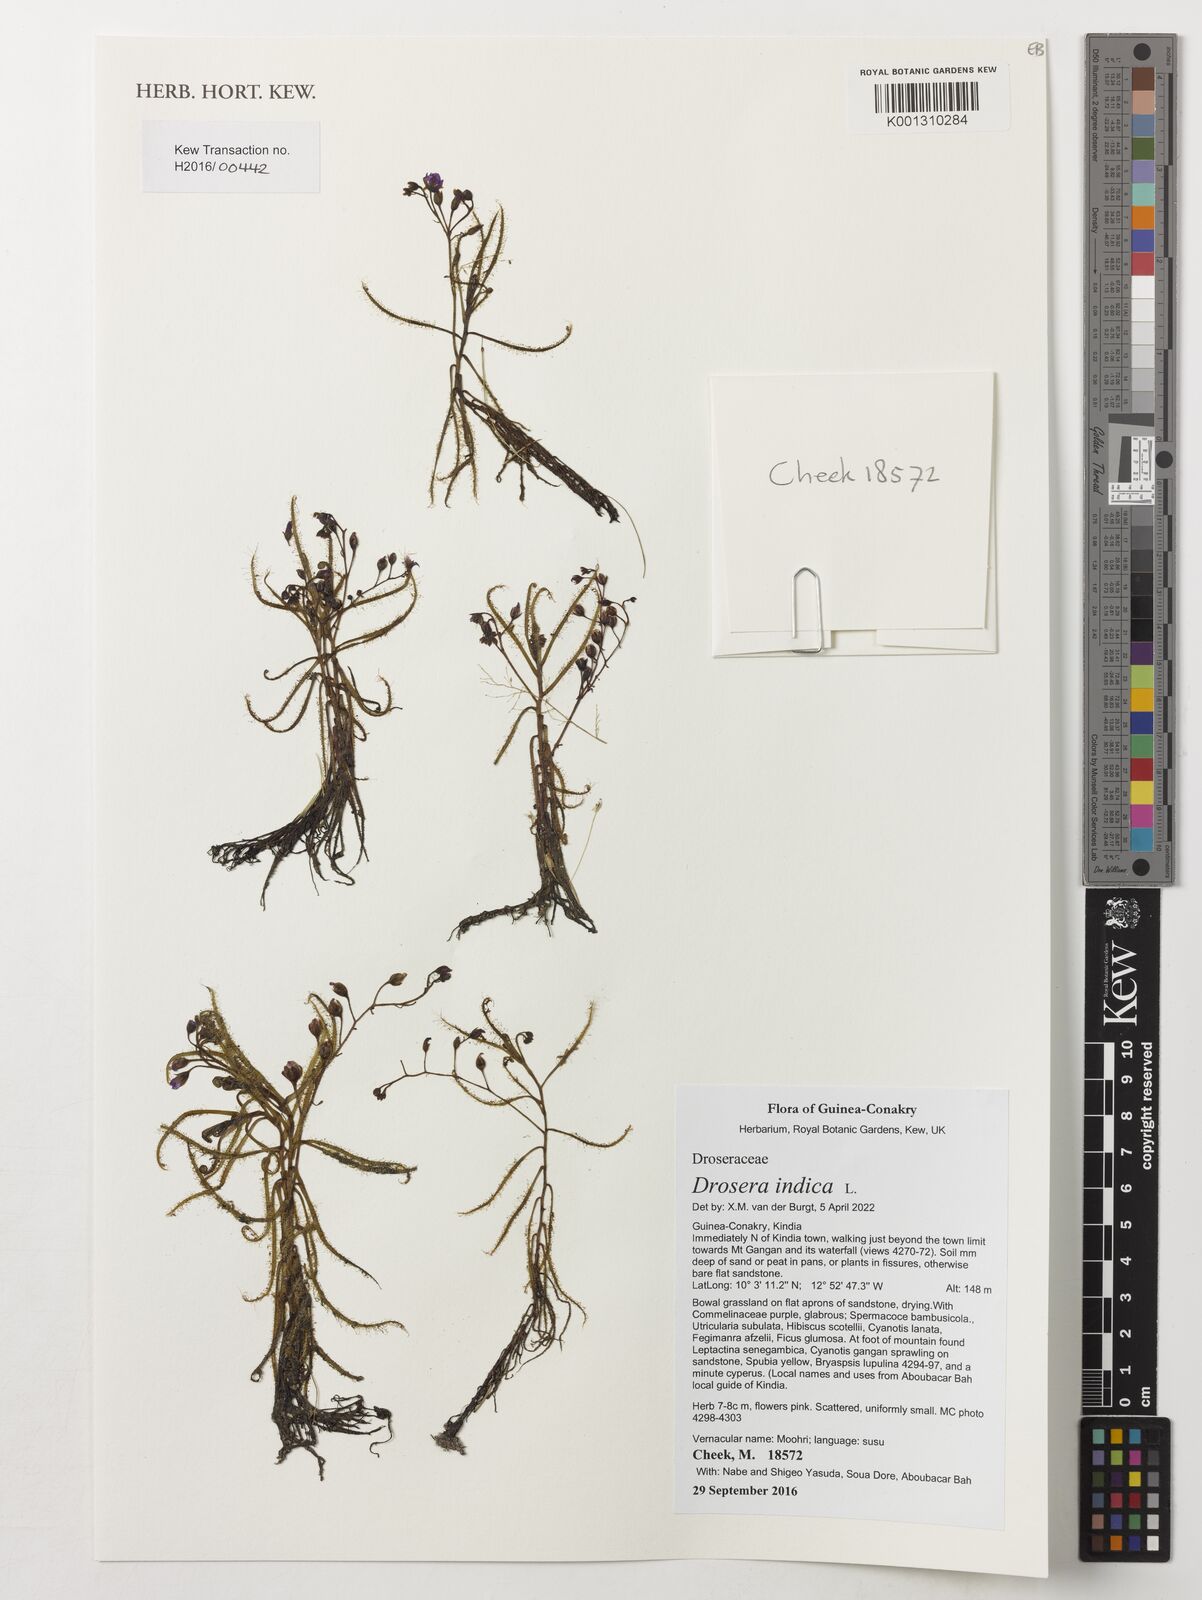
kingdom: Plantae
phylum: Tracheophyta
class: Magnoliopsida
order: Caryophyllales
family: Droseraceae
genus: Drosera
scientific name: Drosera indica
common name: Indian sundew
